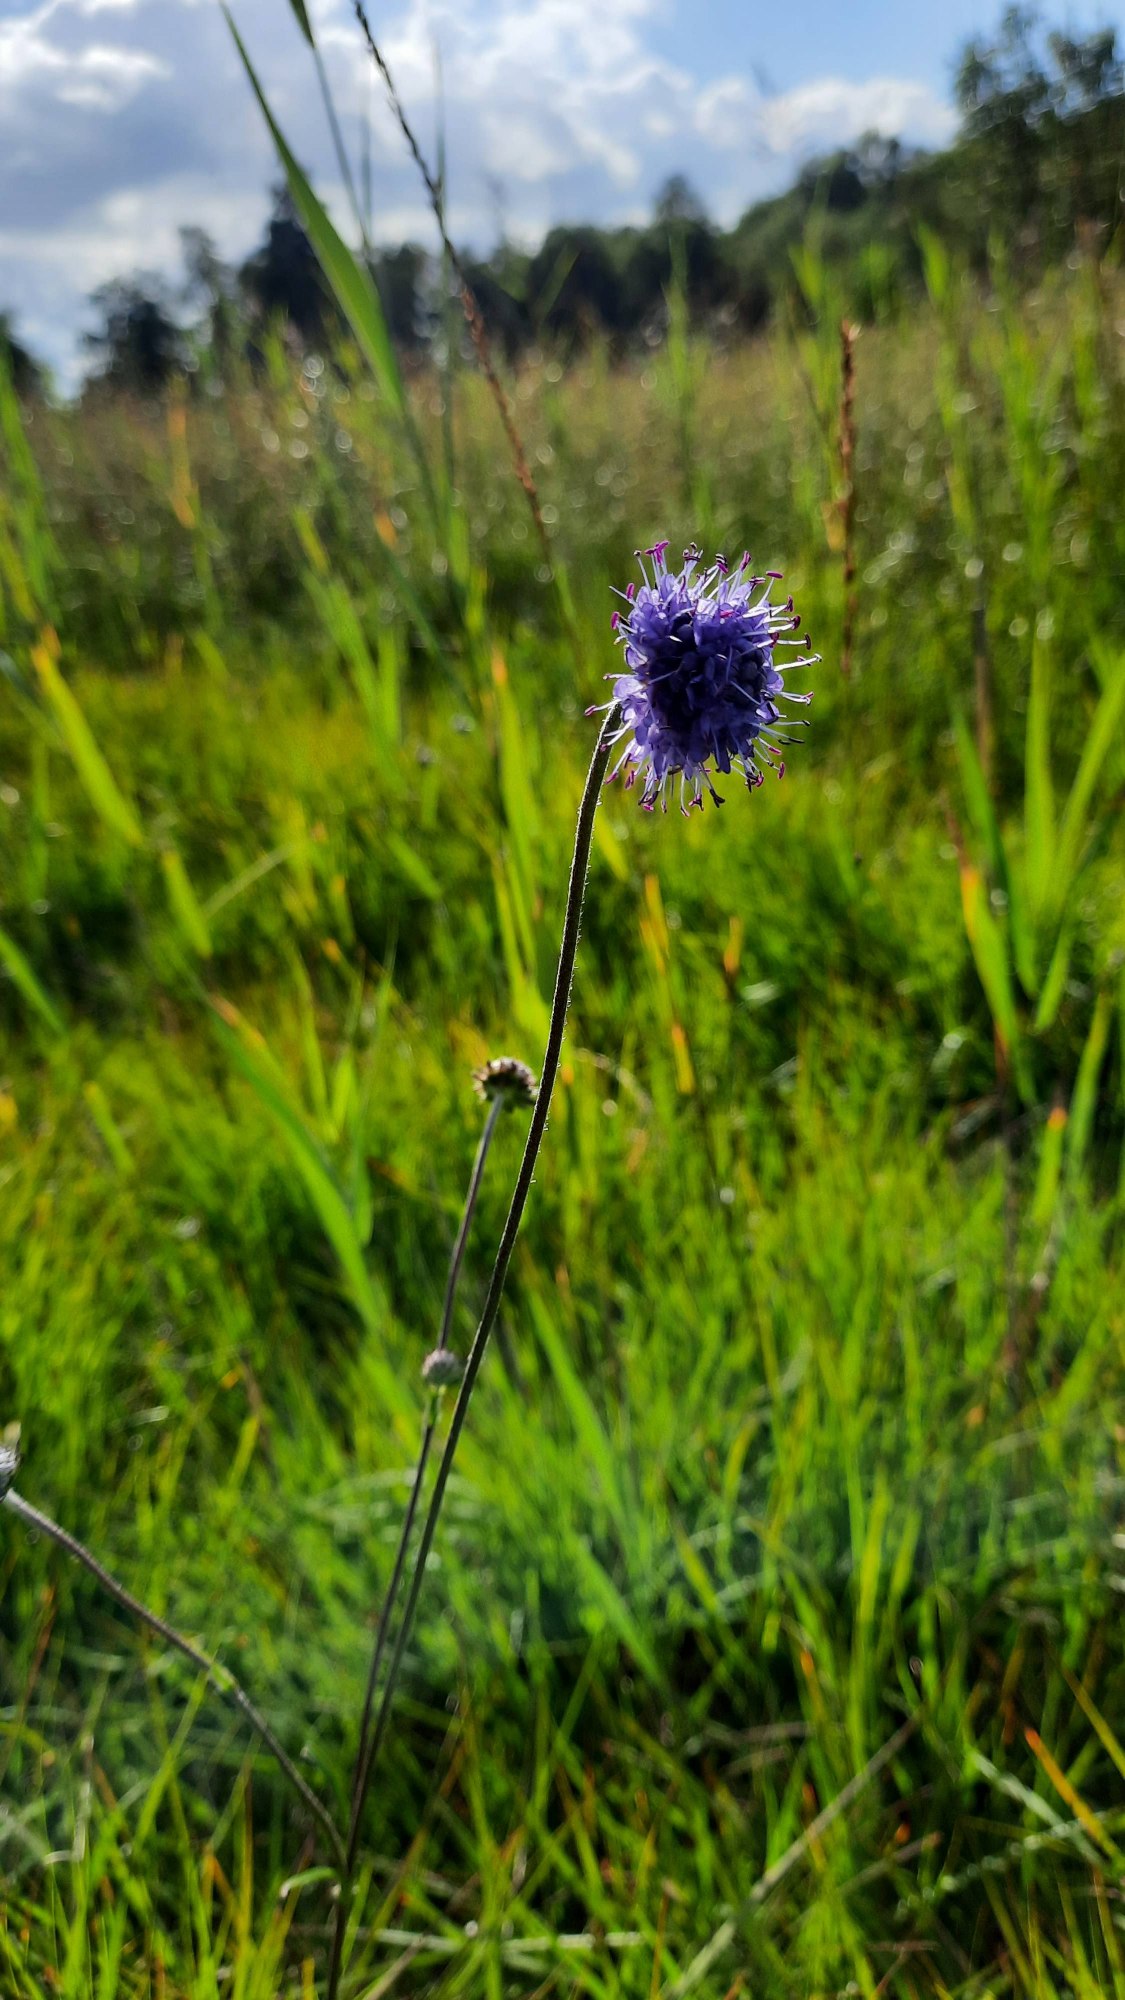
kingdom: Plantae
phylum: Tracheophyta
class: Magnoliopsida
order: Dipsacales
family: Caprifoliaceae
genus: Succisa
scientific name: Succisa pratensis
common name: Djævelsbid
